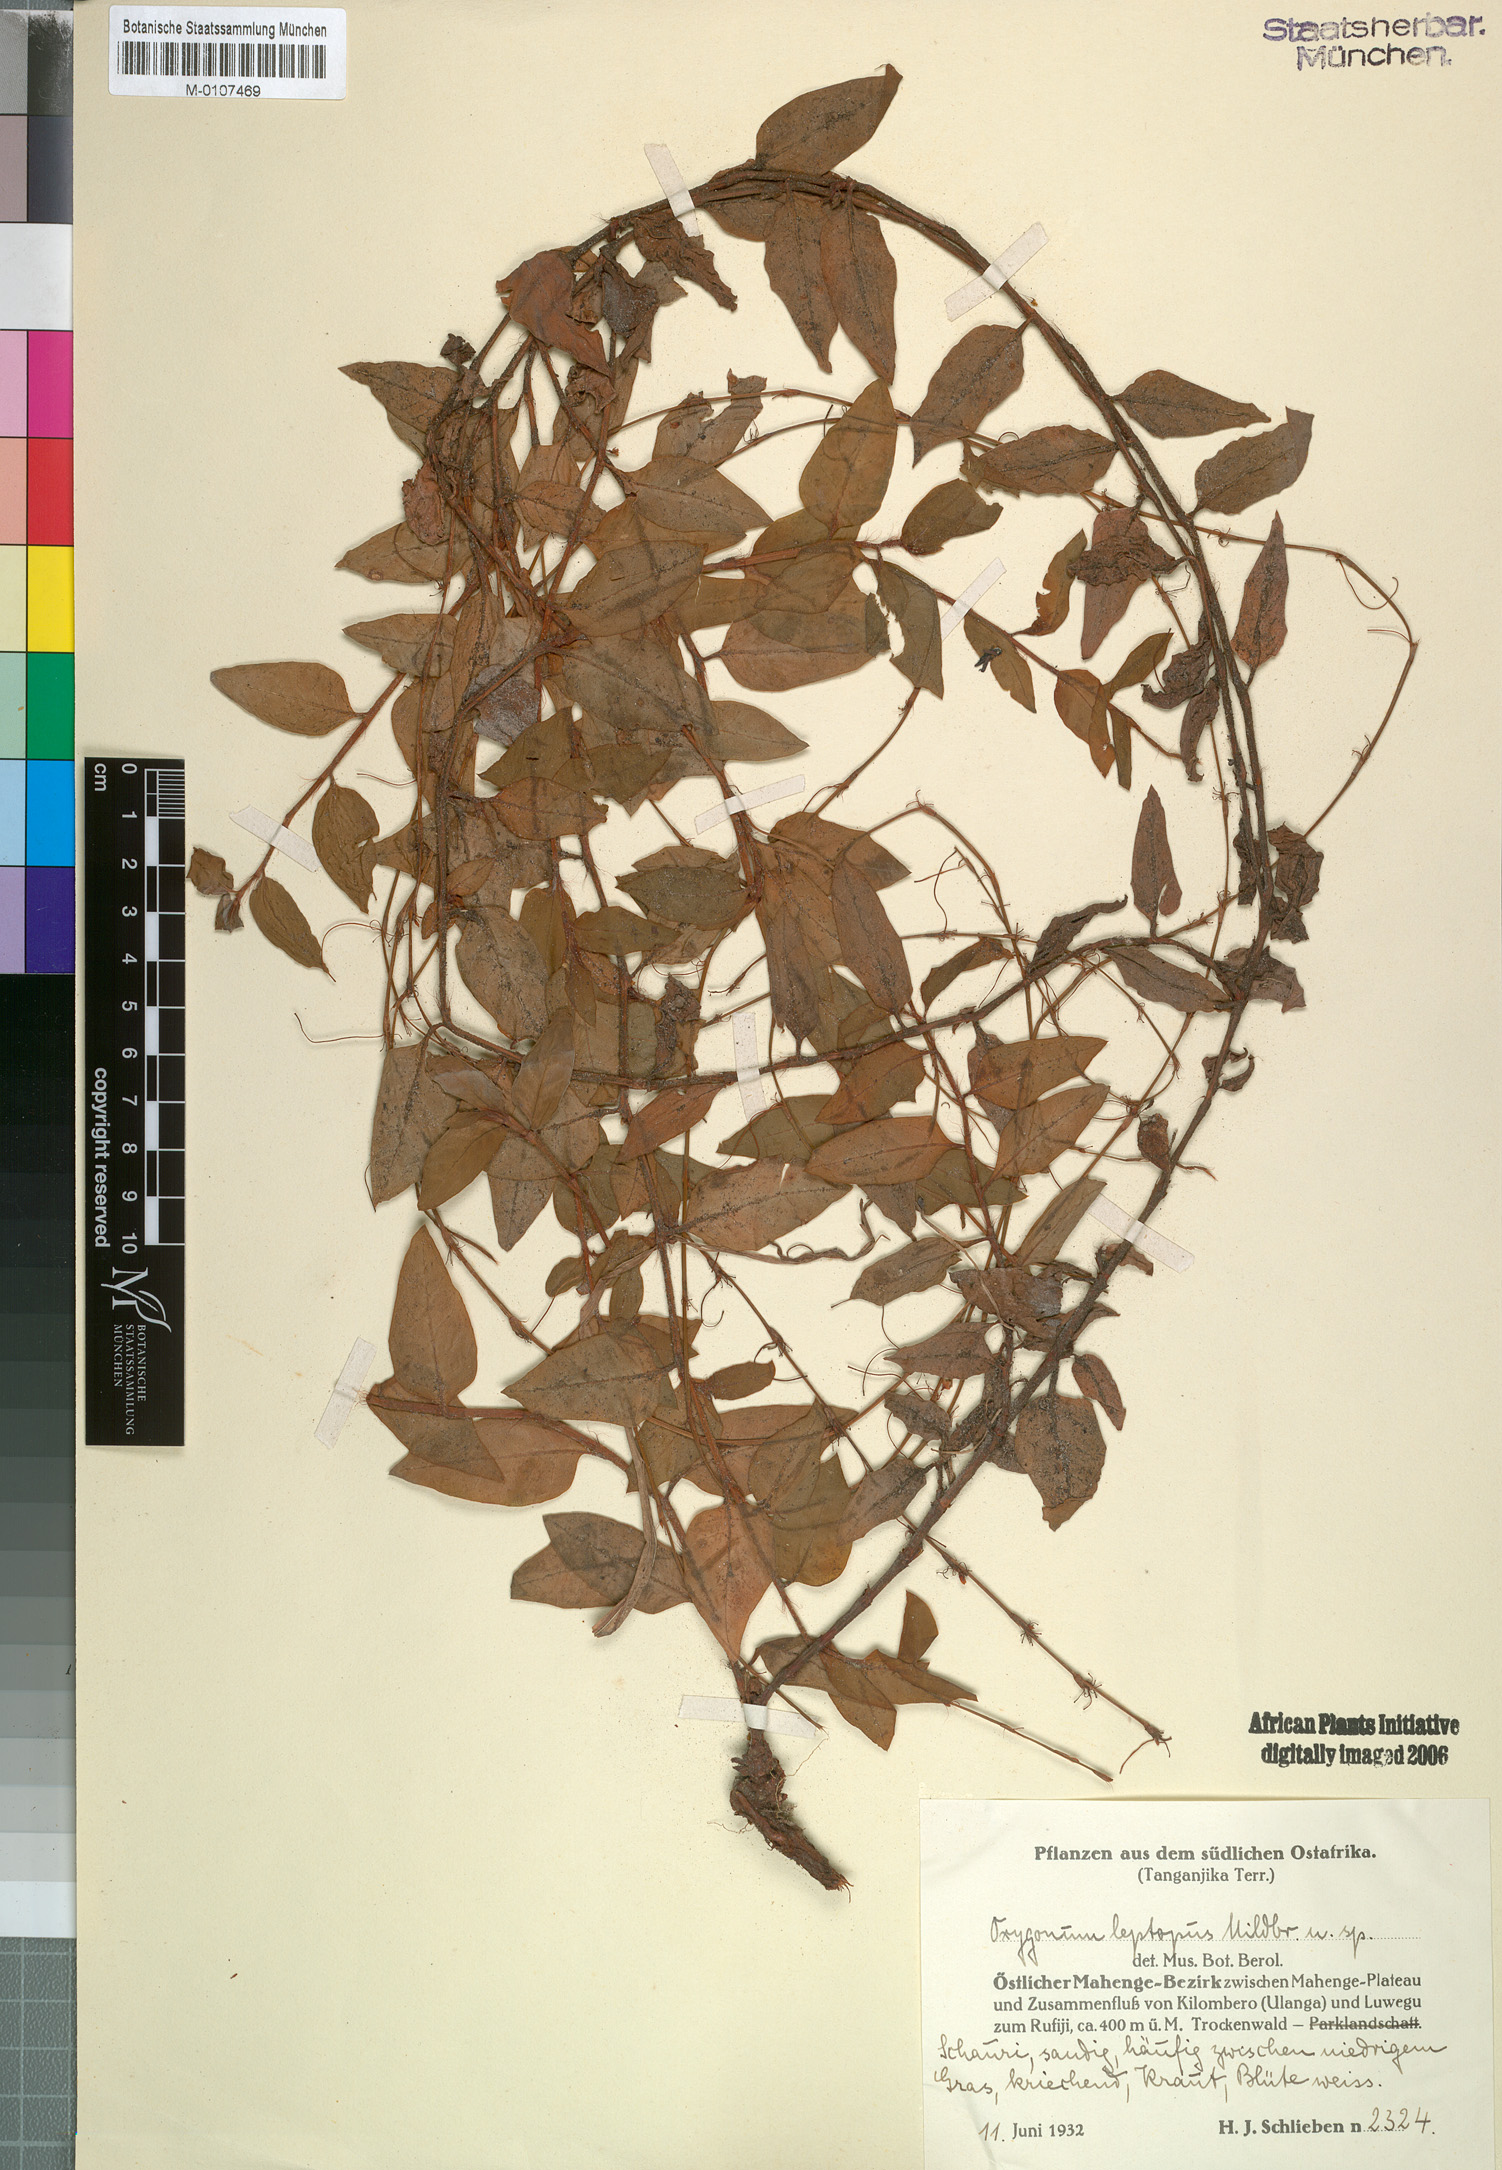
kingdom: Plantae
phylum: Tracheophyta
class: Magnoliopsida
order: Caryophyllales
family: Polygonaceae
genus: Oxygonum
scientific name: Oxygonum leptopus
